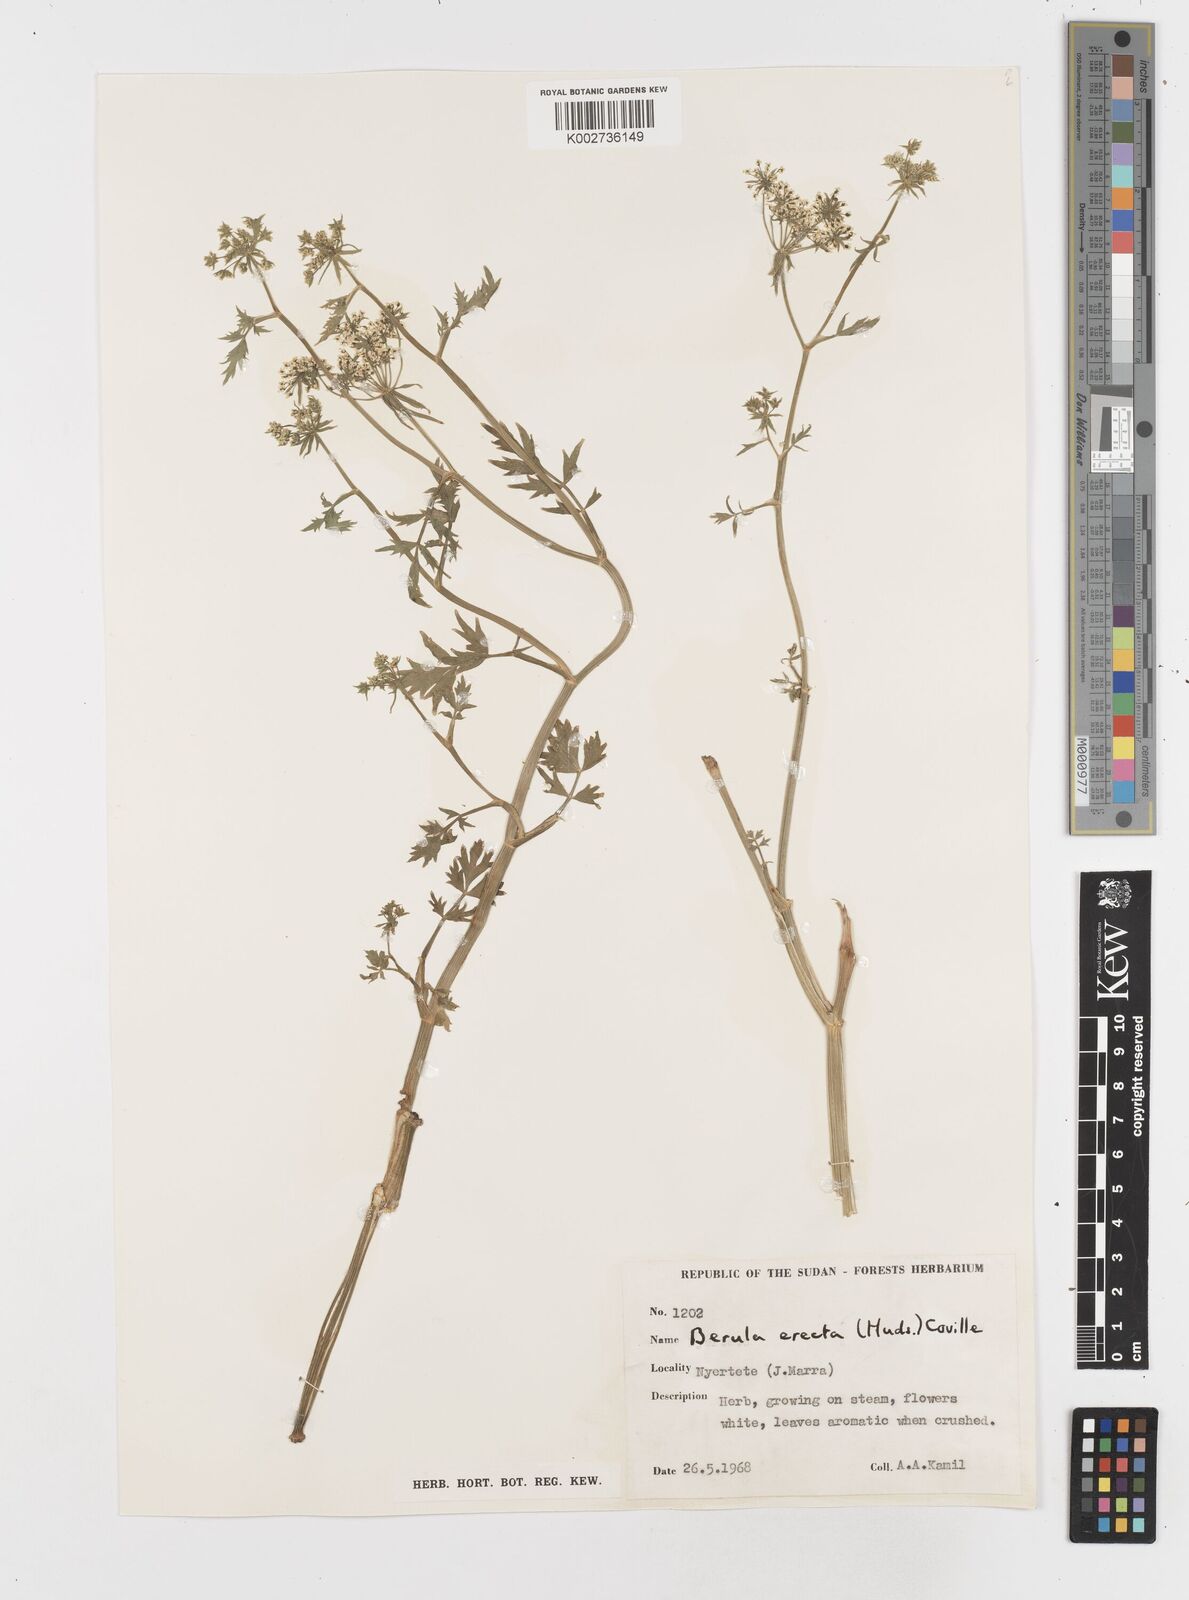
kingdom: Plantae
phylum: Tracheophyta
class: Magnoliopsida
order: Apiales
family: Apiaceae
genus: Berula
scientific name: Berula erecta
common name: Lesser water-parsnip
